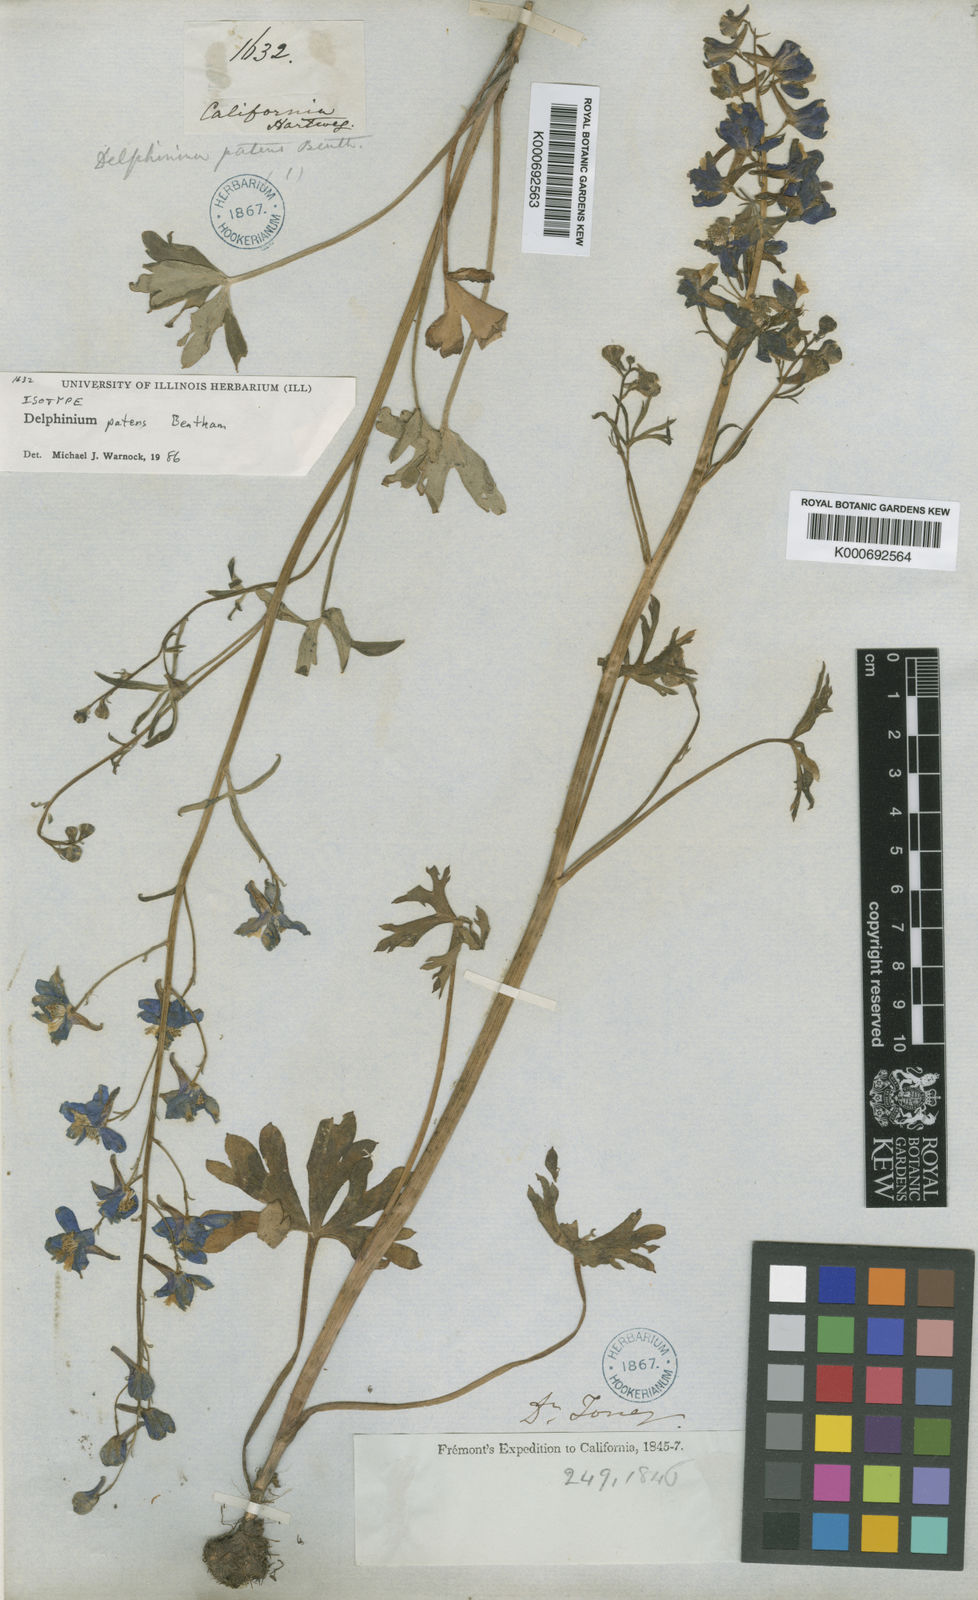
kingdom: Plantae
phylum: Tracheophyta
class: Magnoliopsida
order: Ranunculales
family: Ranunculaceae
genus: Delphinium
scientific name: Delphinium decorum
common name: Coast larkspur
